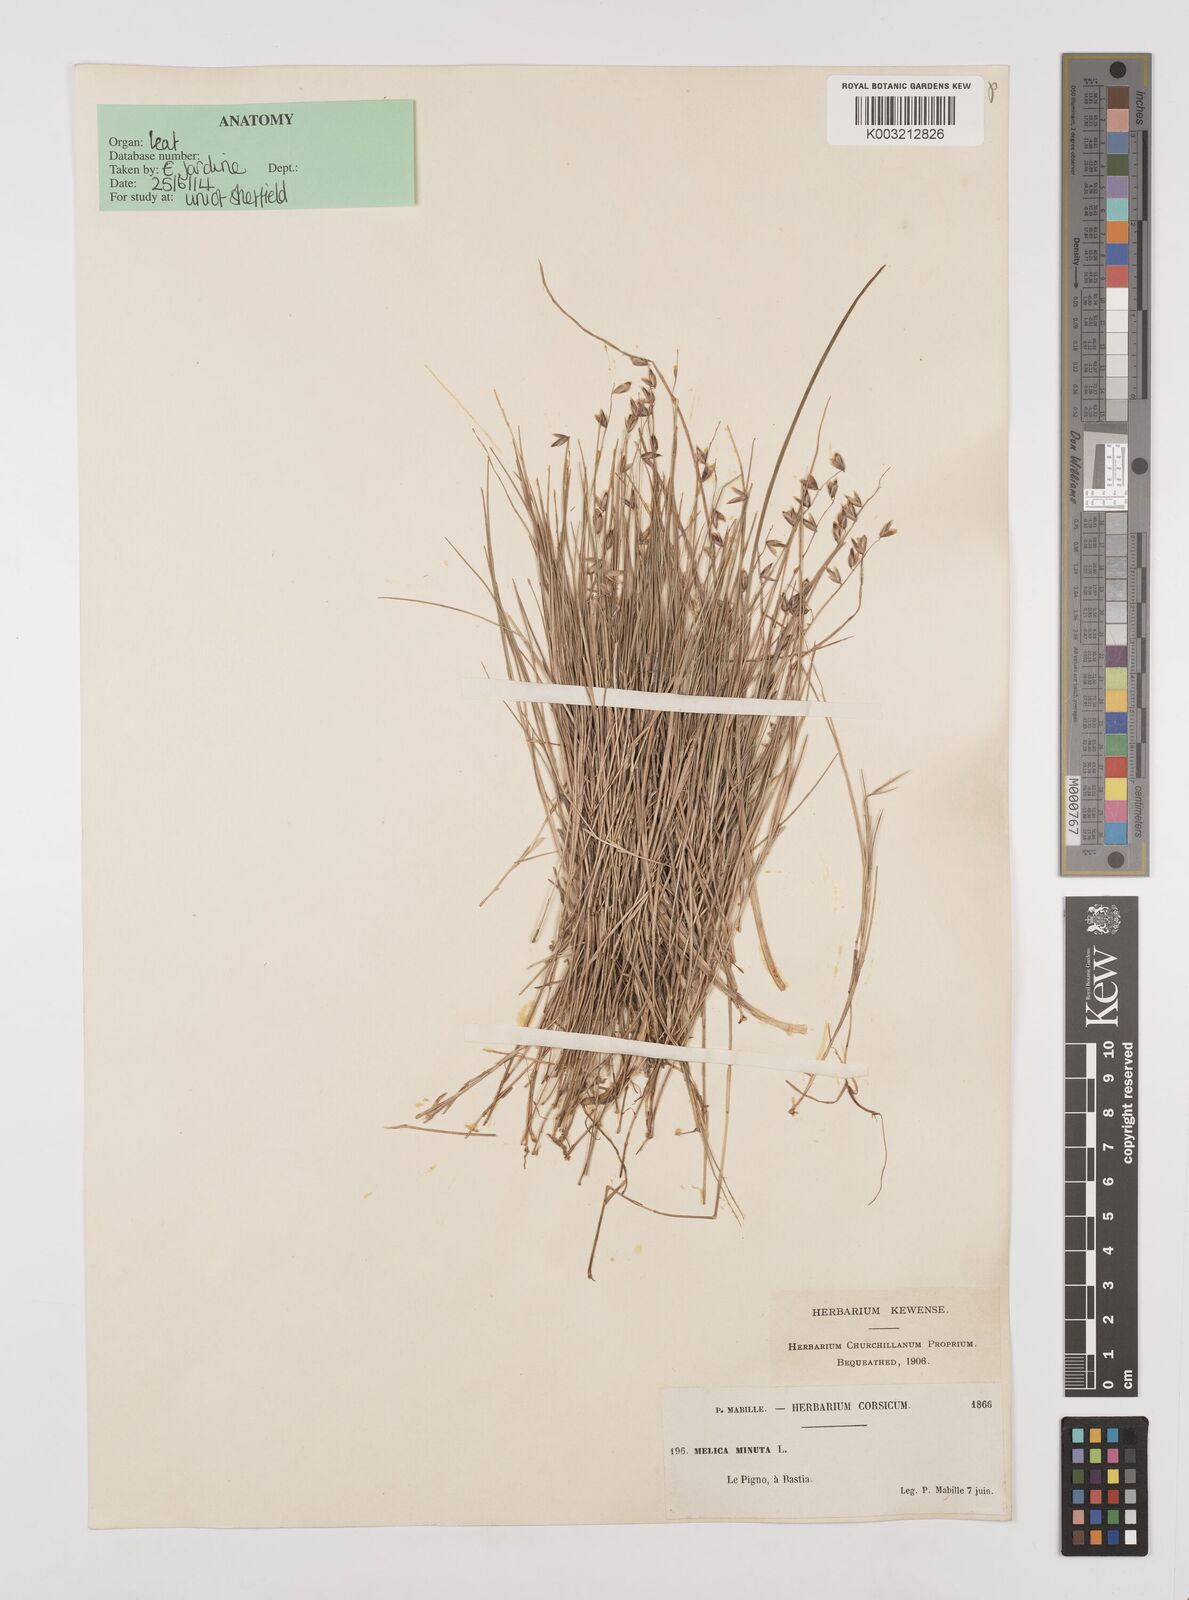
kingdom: Plantae
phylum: Tracheophyta
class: Liliopsida
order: Poales
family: Poaceae
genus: Melica
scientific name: Melica minuta
